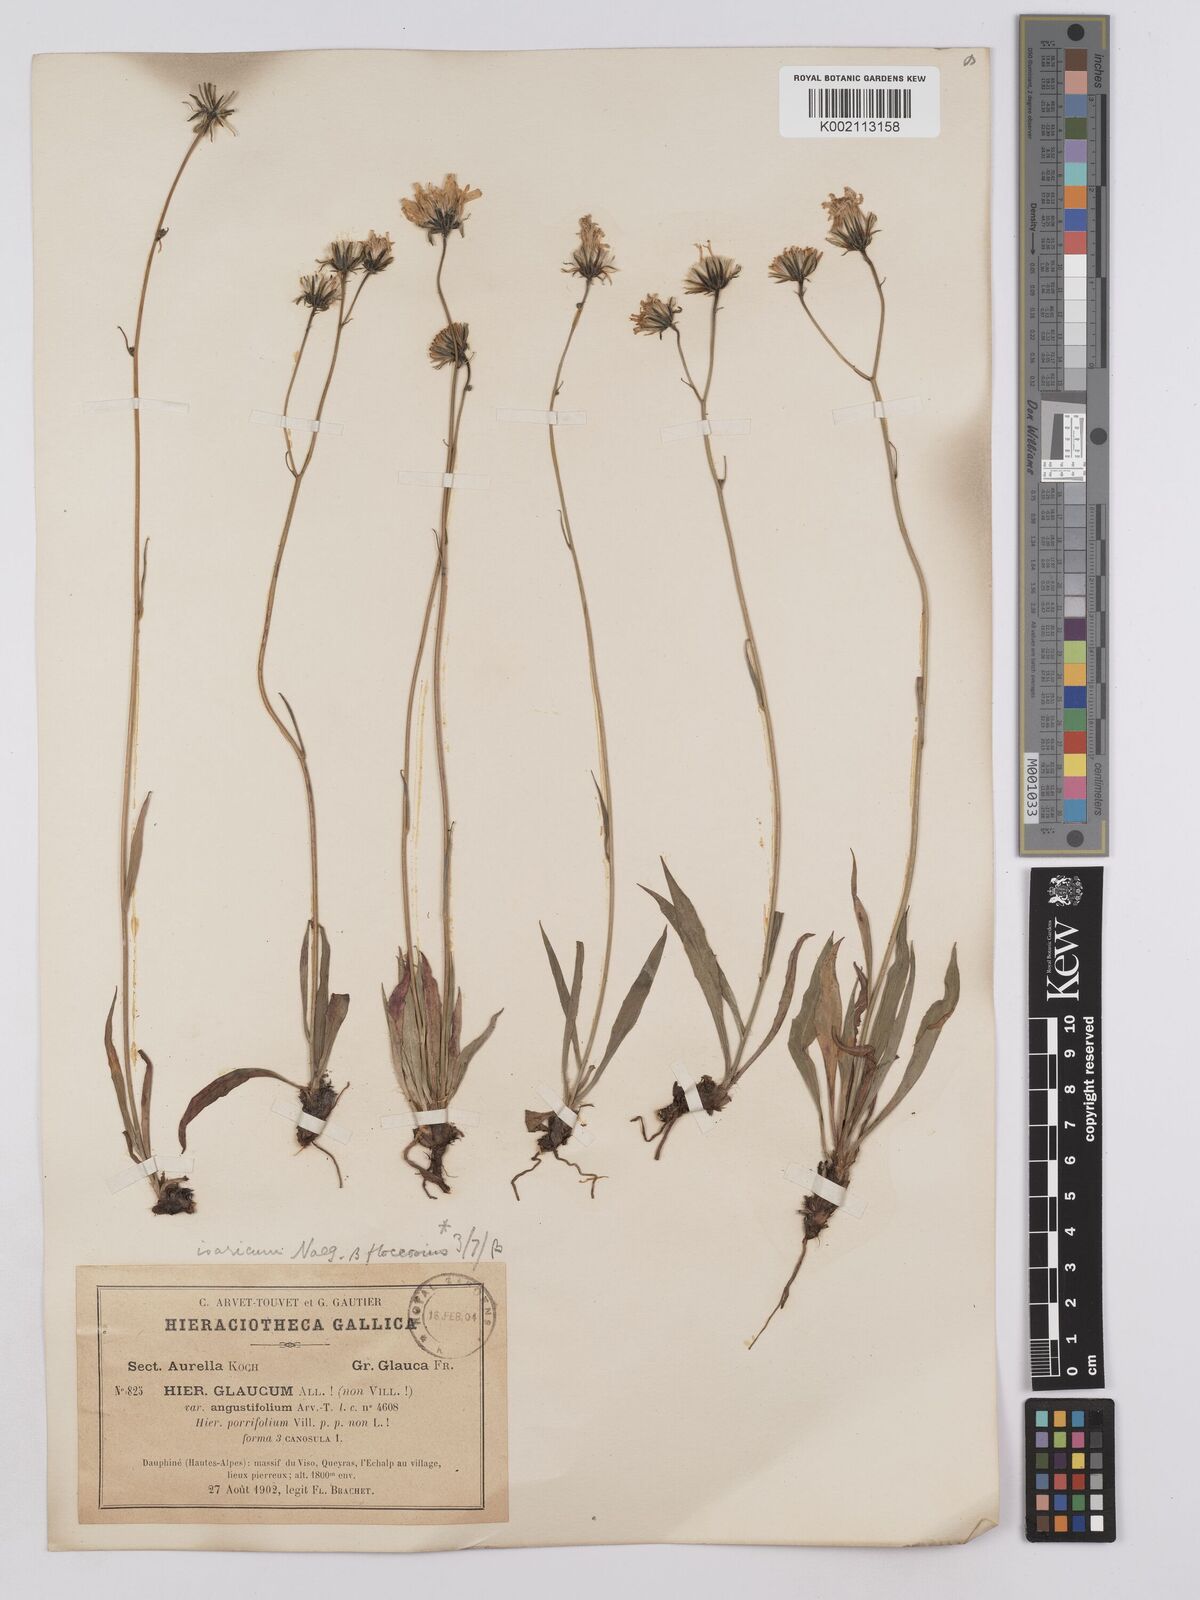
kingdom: Plantae
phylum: Tracheophyta
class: Magnoliopsida
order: Asterales
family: Asteraceae
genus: Hieracium
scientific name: Hieracium glaucum
